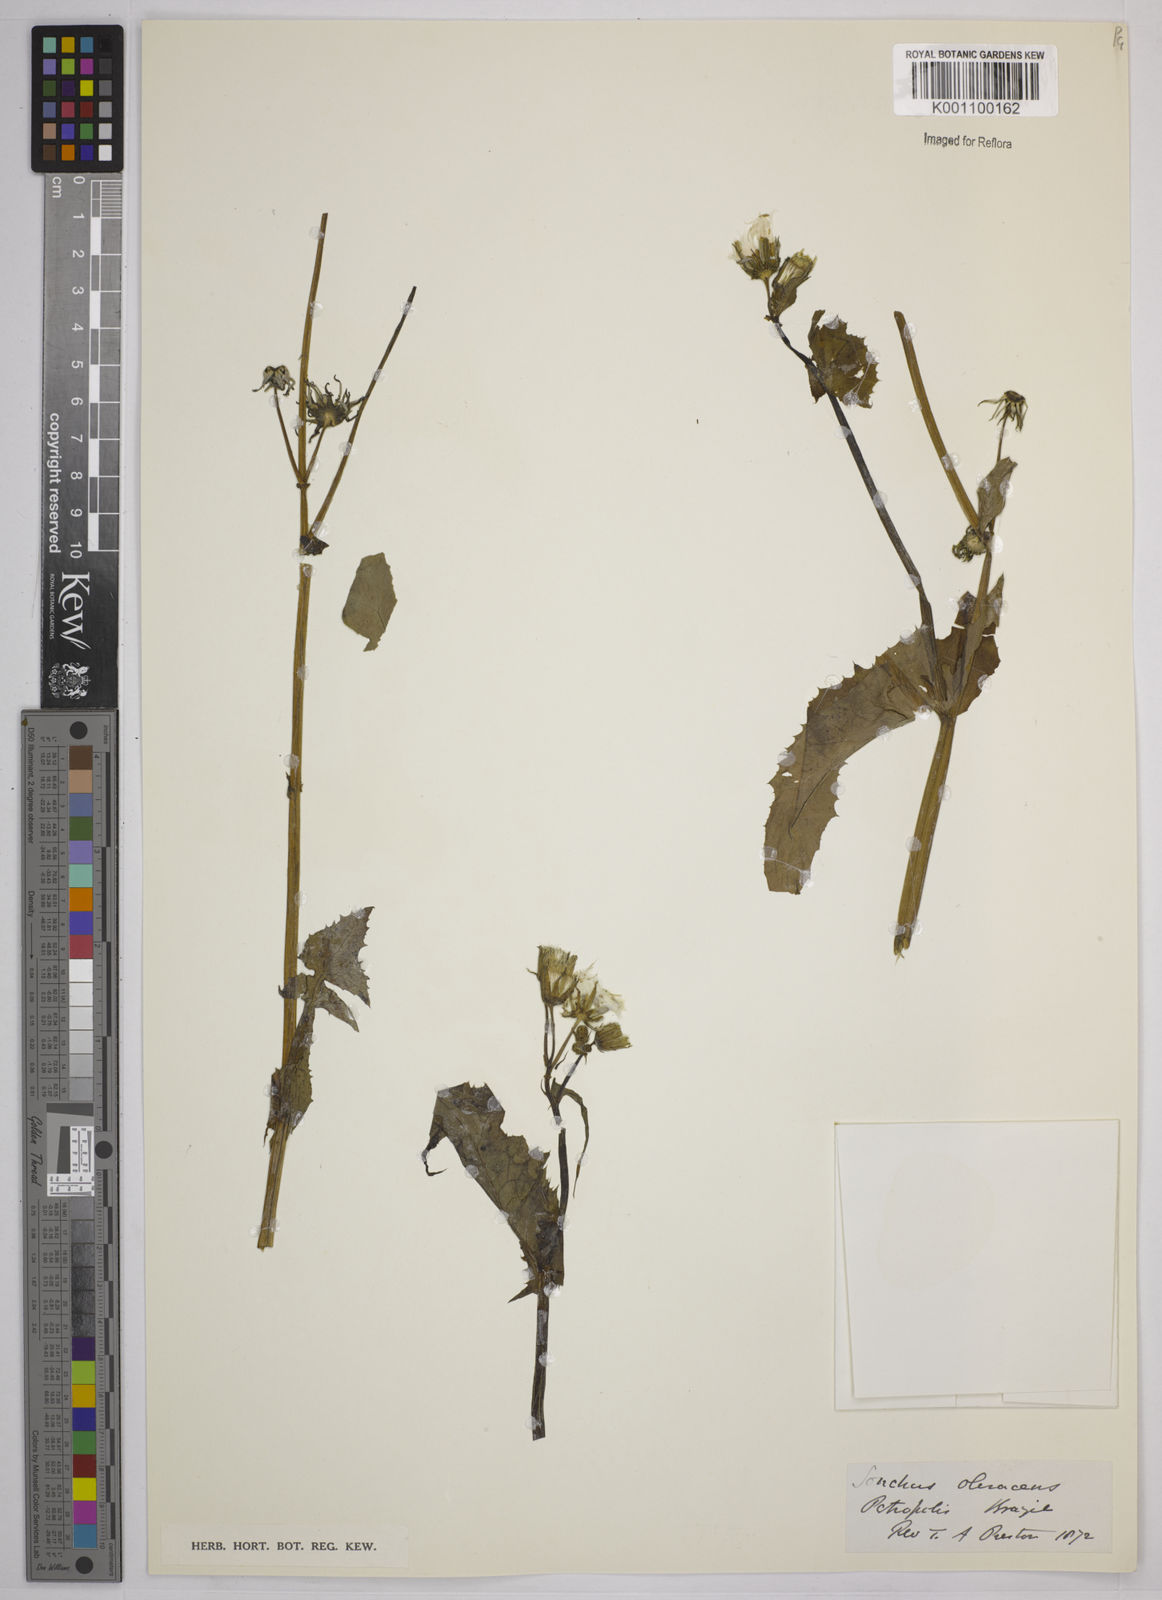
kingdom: Plantae
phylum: Tracheophyta
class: Magnoliopsida
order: Asterales
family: Asteraceae
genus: Sonchus
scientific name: Sonchus asper
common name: Prickly sow-thistle
